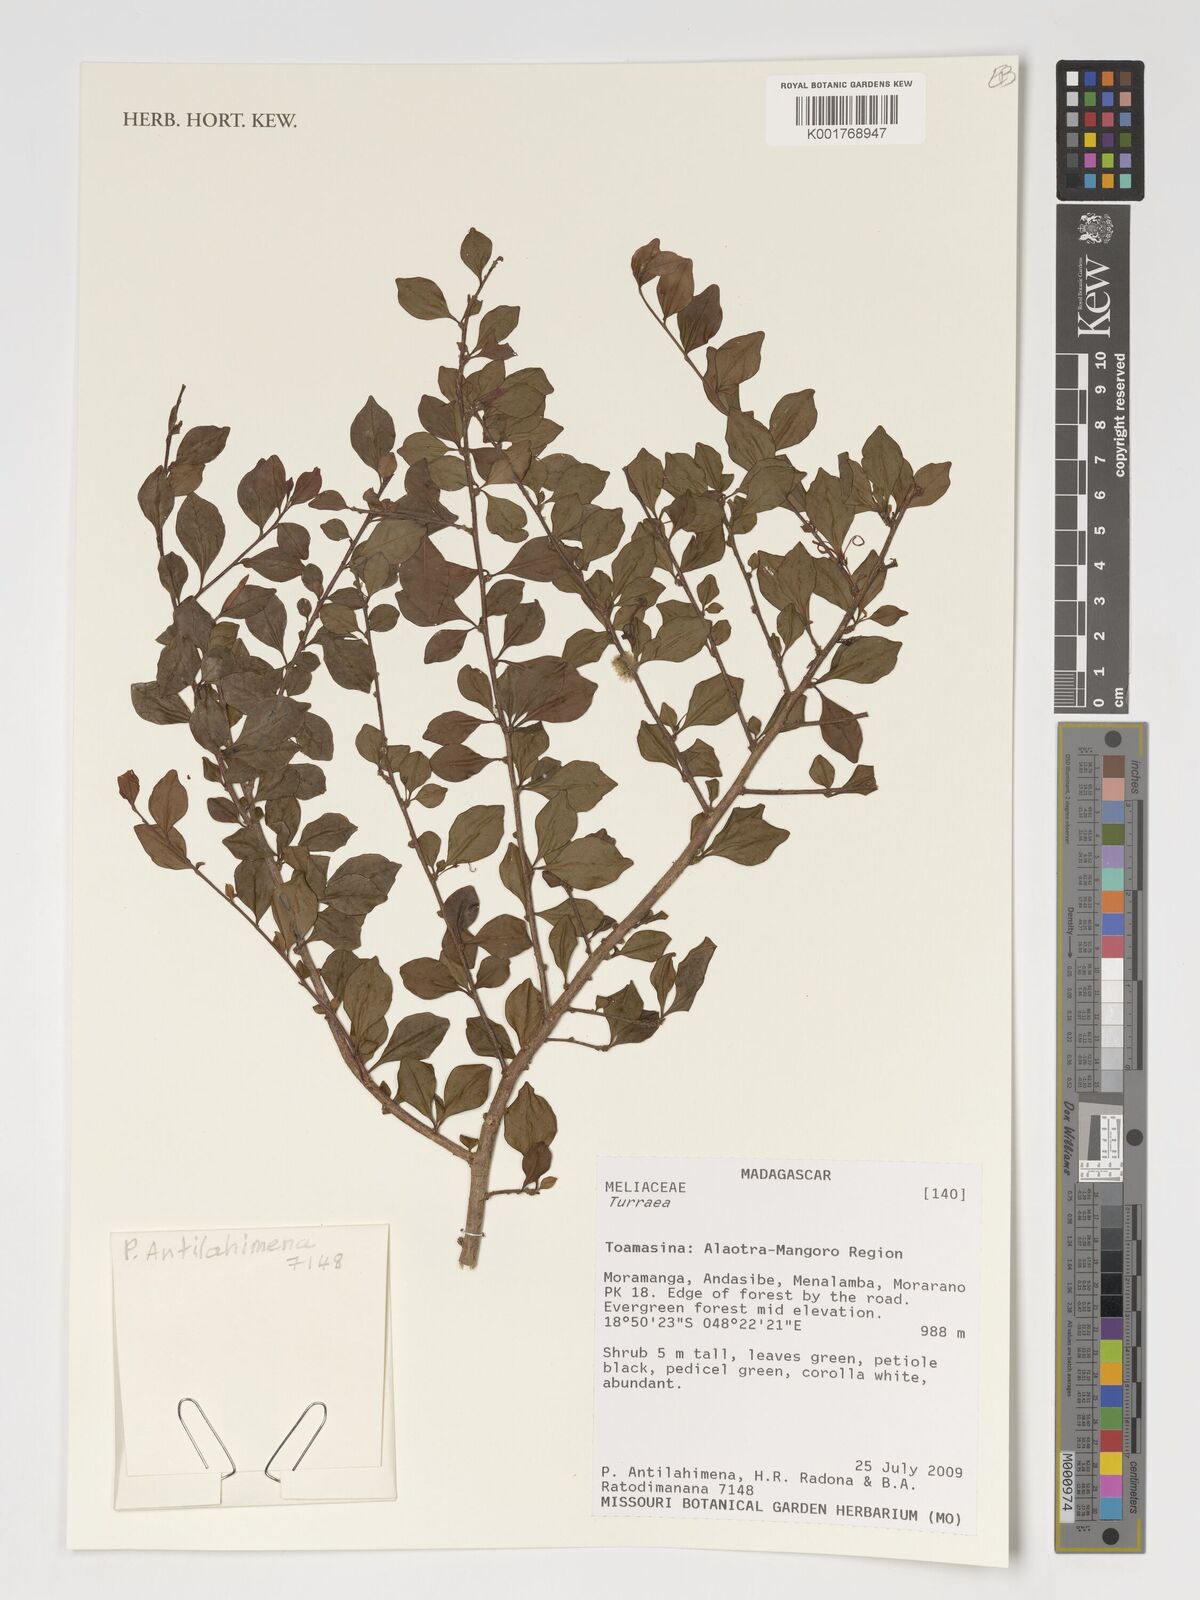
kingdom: Plantae
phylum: Tracheophyta
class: Magnoliopsida
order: Sapindales
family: Meliaceae
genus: Turraea
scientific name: Turraea
